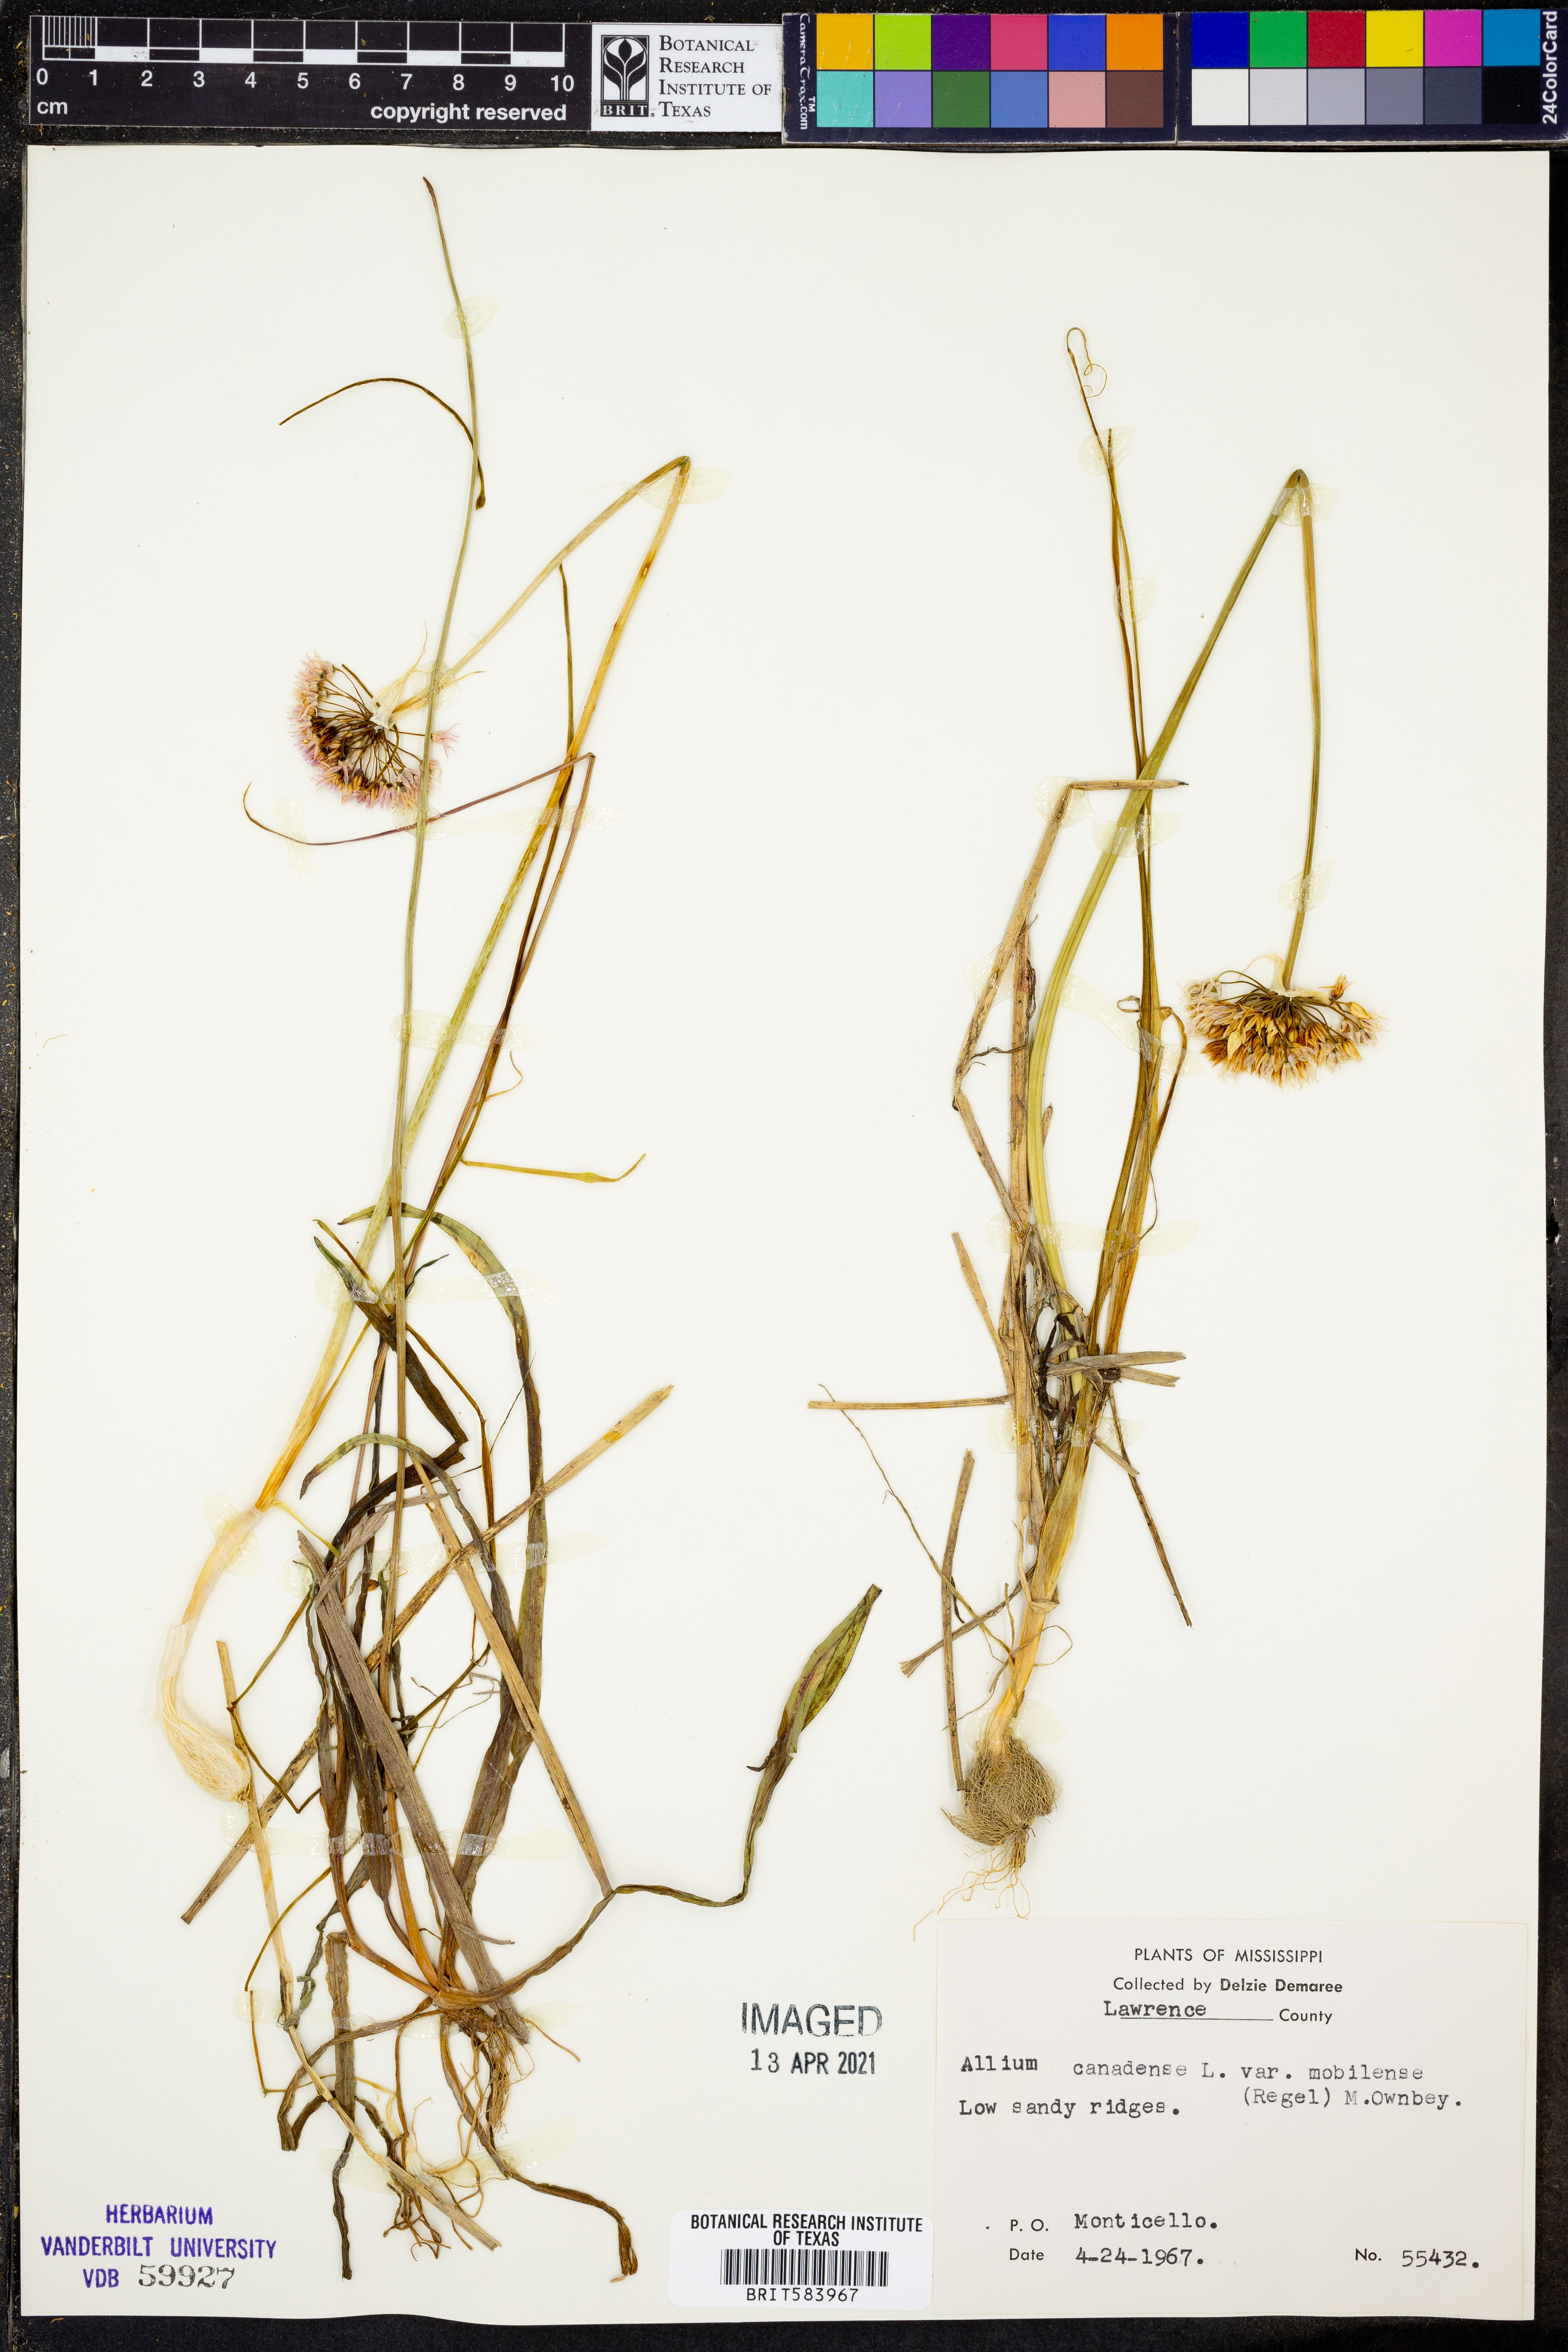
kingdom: Plantae
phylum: Tracheophyta
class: Liliopsida
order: Asparagales
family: Amaryllidaceae
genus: Allium
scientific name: Allium canadense
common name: Meadow garlic
